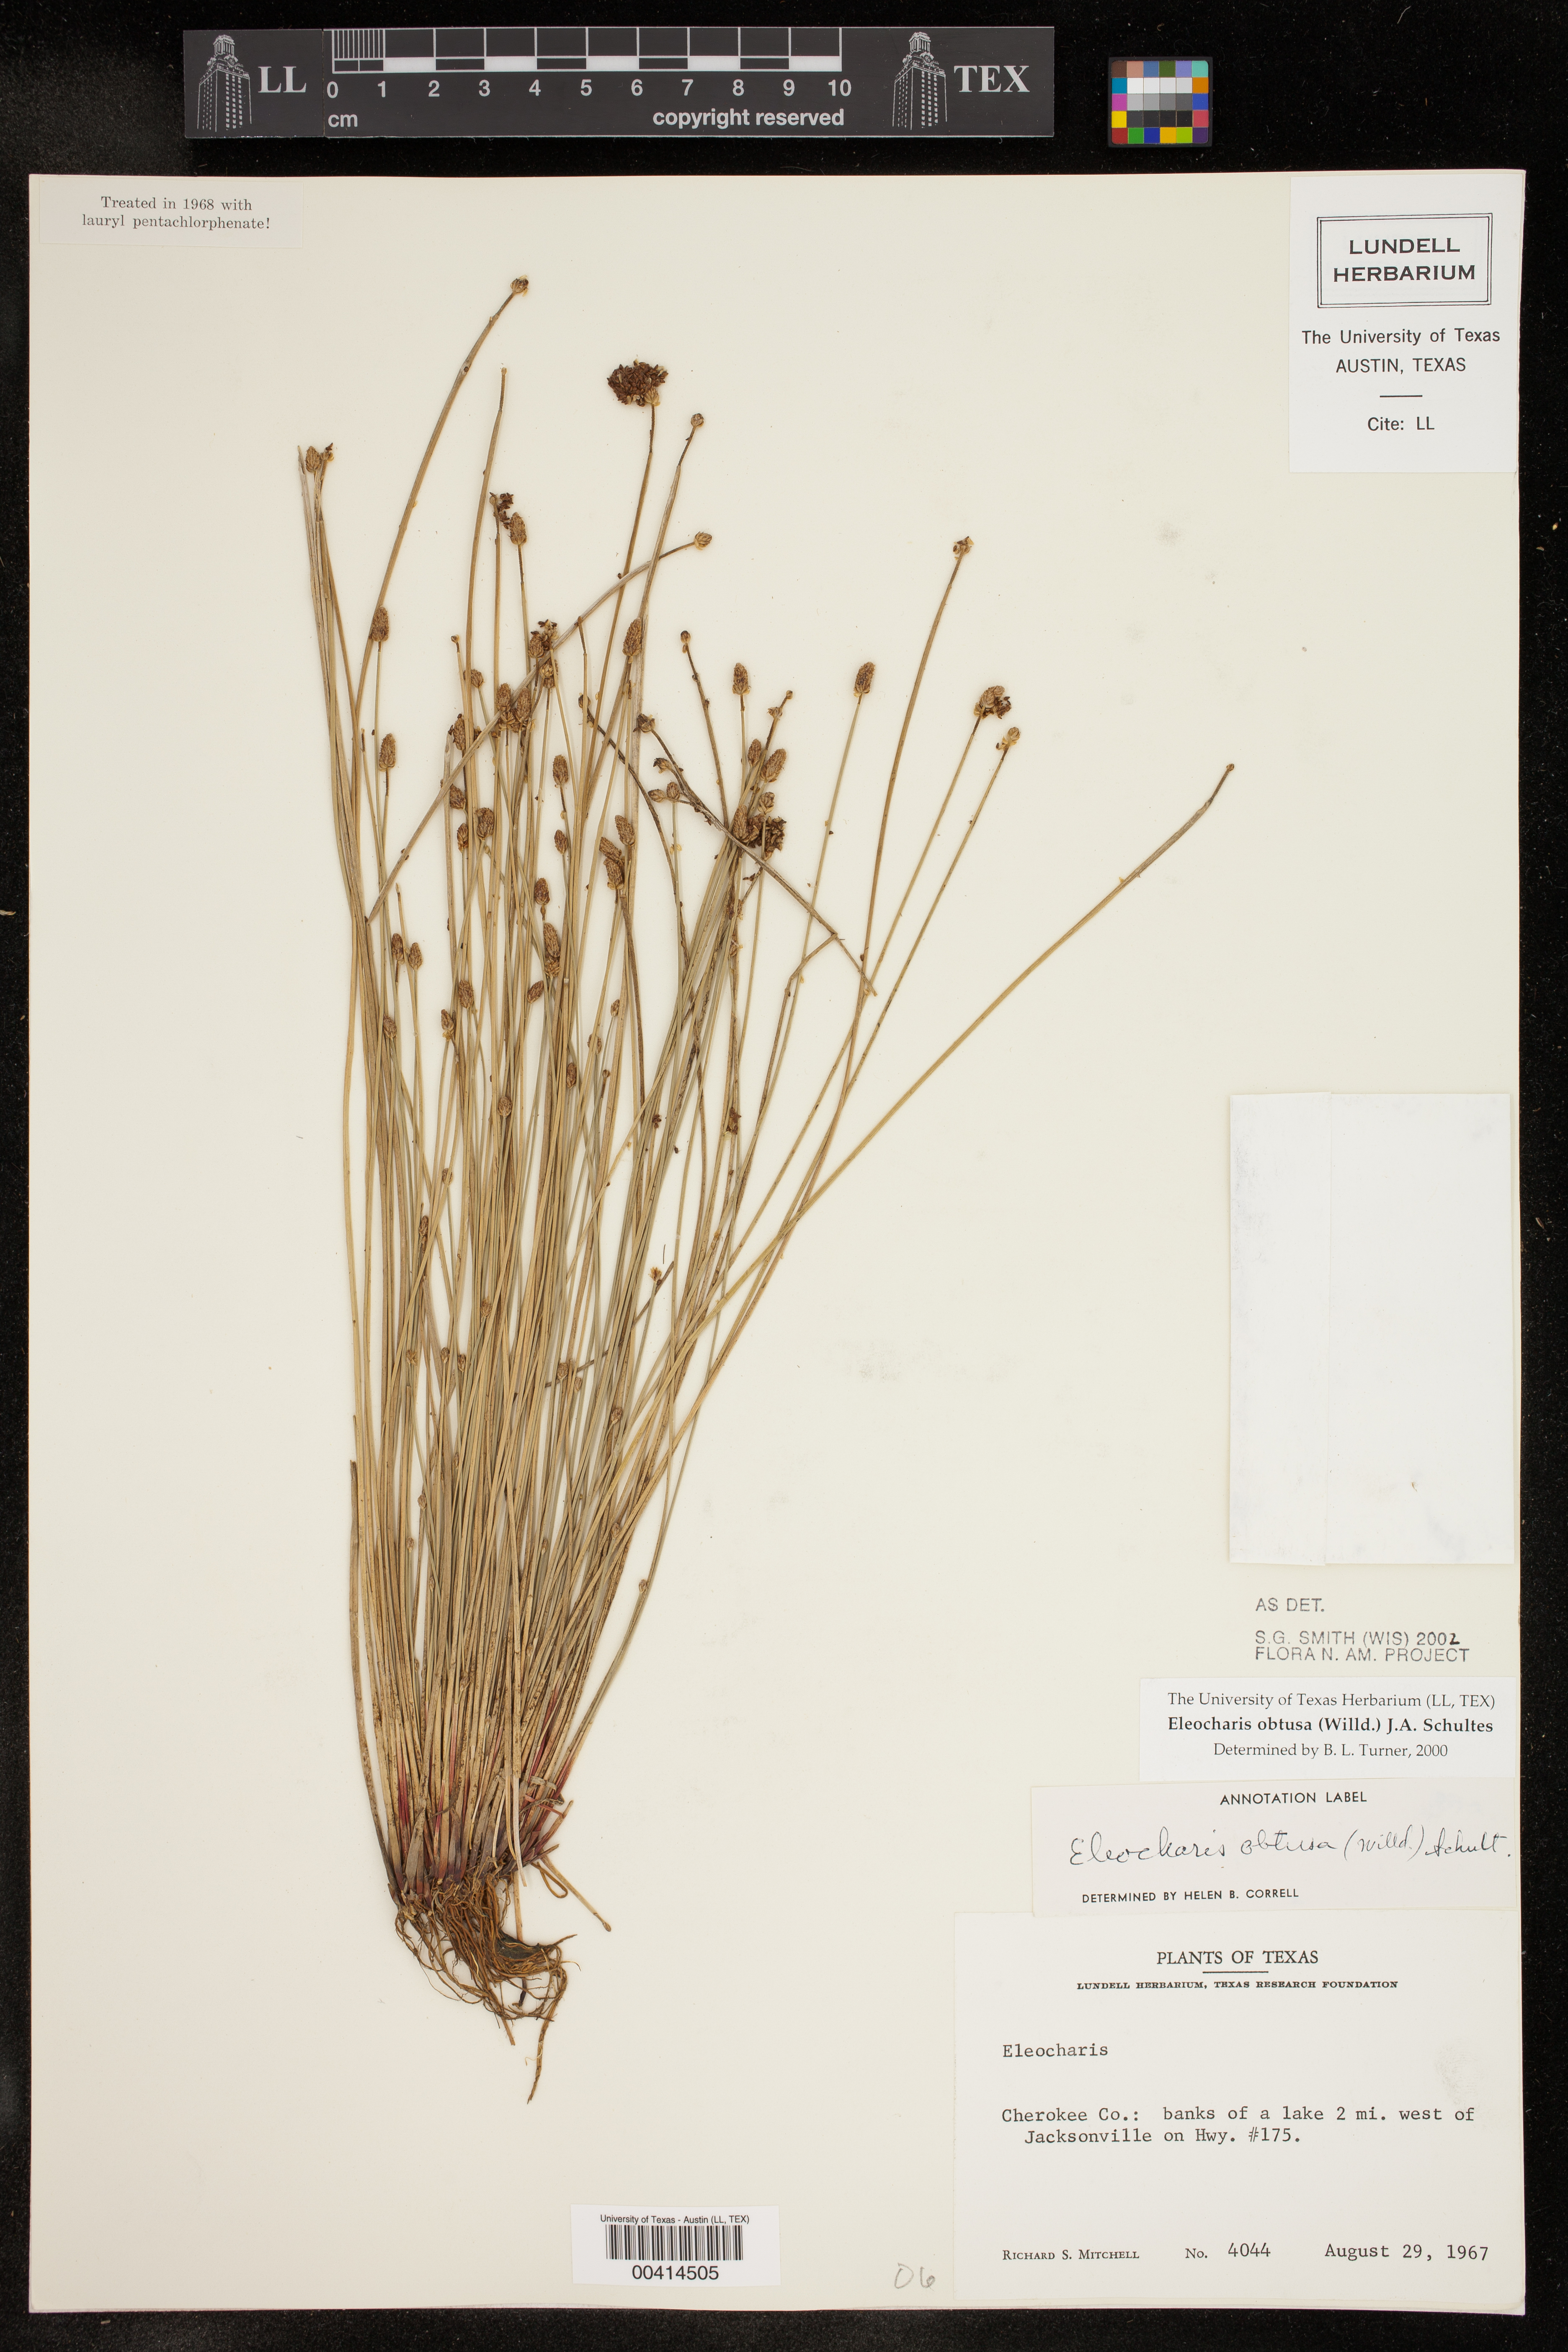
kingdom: Plantae
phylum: Tracheophyta
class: Liliopsida
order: Poales
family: Cyperaceae
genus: Eleocharis
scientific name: Eleocharis obtusa
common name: Blunt spikerush
